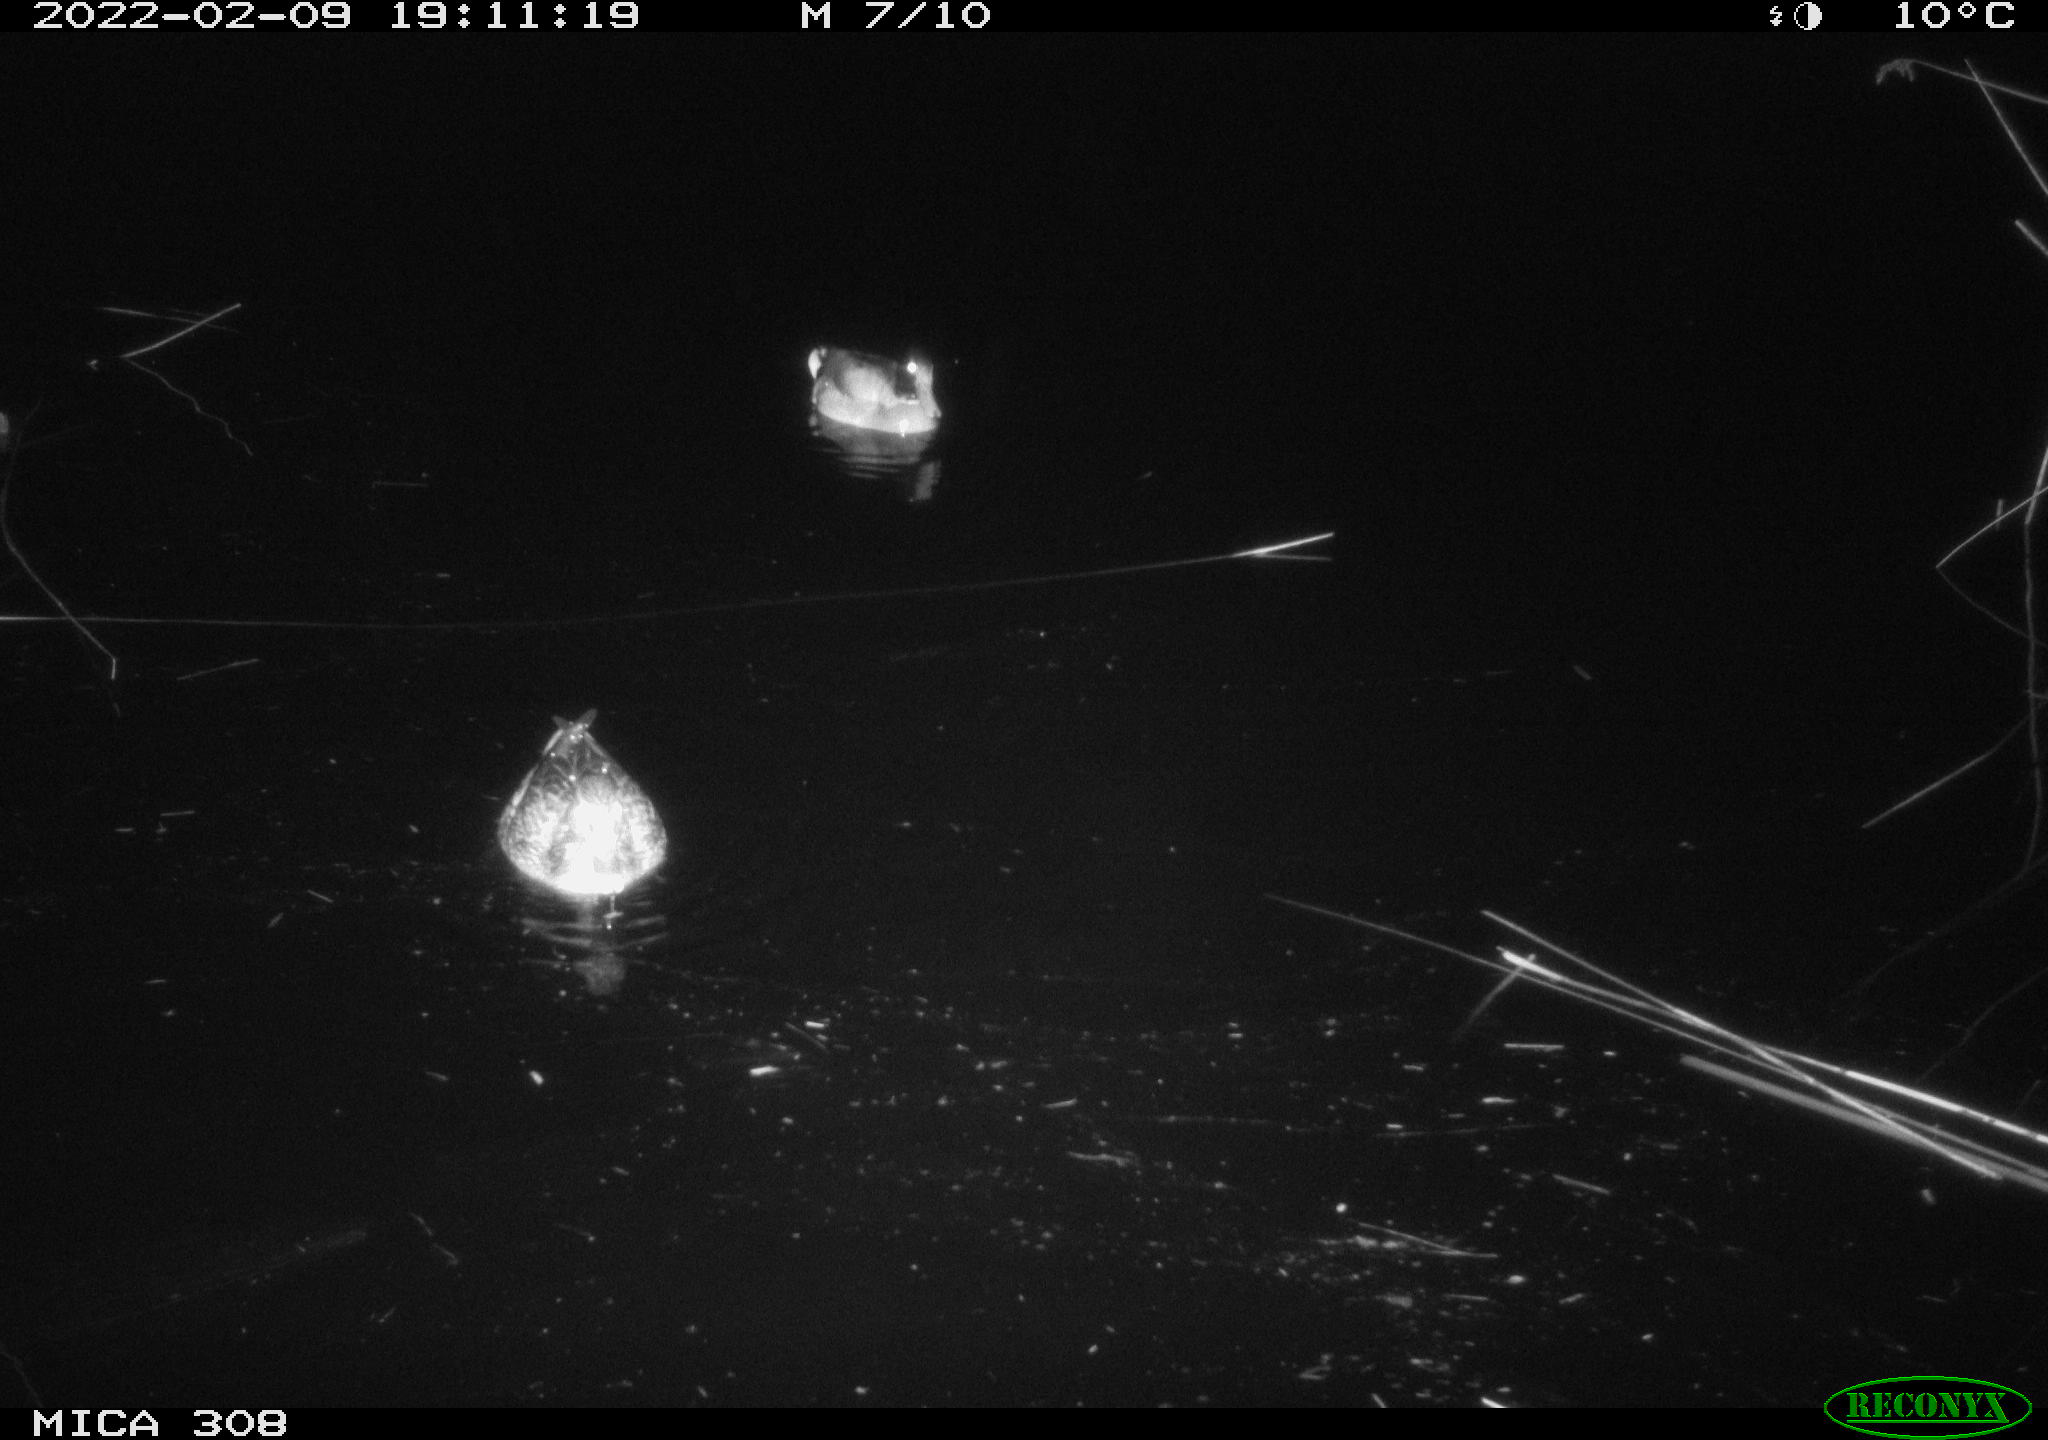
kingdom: Animalia
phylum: Chordata
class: Aves
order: Anseriformes
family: Anatidae
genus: Anas
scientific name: Anas platyrhynchos
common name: Mallard
